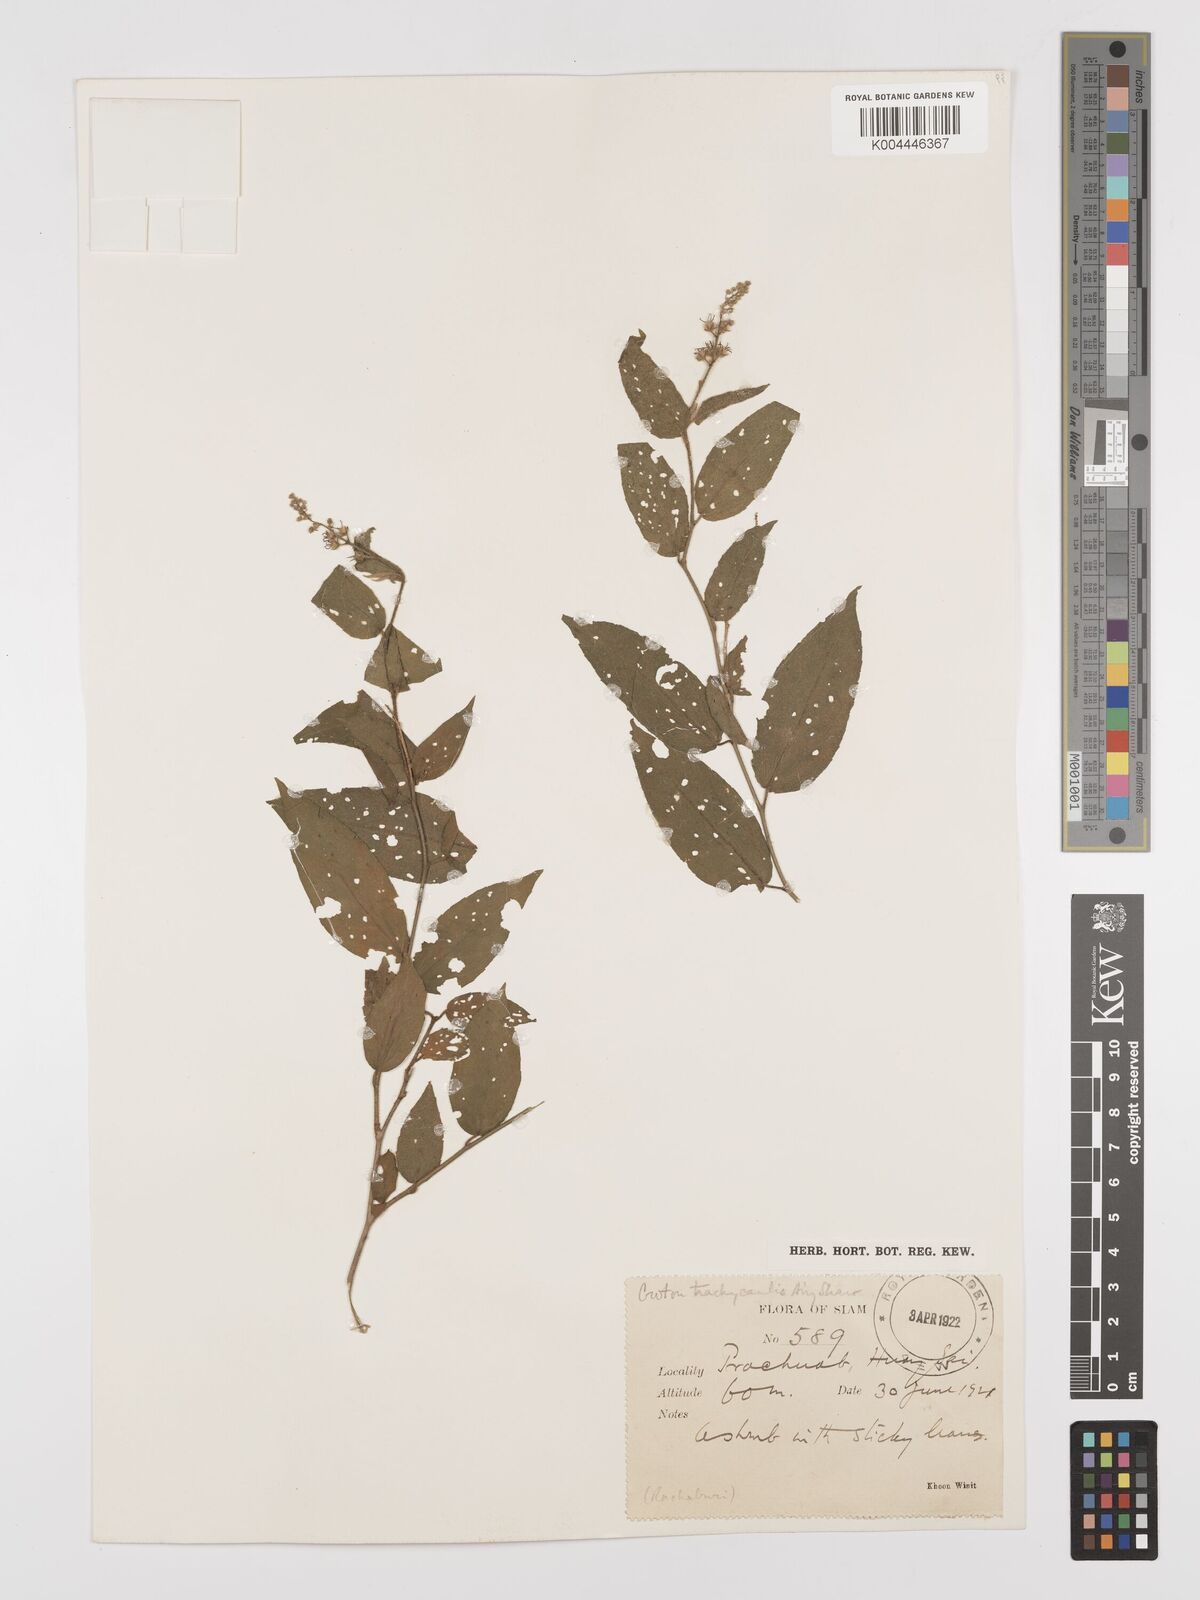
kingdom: Plantae
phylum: Tracheophyta
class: Magnoliopsida
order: Malpighiales
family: Euphorbiaceae
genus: Croton
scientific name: Croton lachnocarpus
